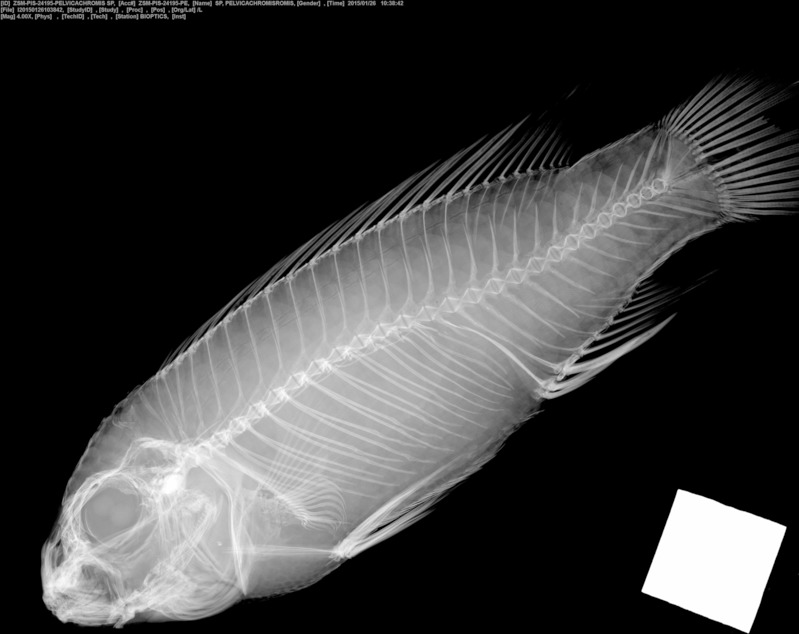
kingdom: Animalia
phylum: Chordata
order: Perciformes
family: Cichlidae
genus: Pelvicachromis
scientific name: Pelvicachromis
